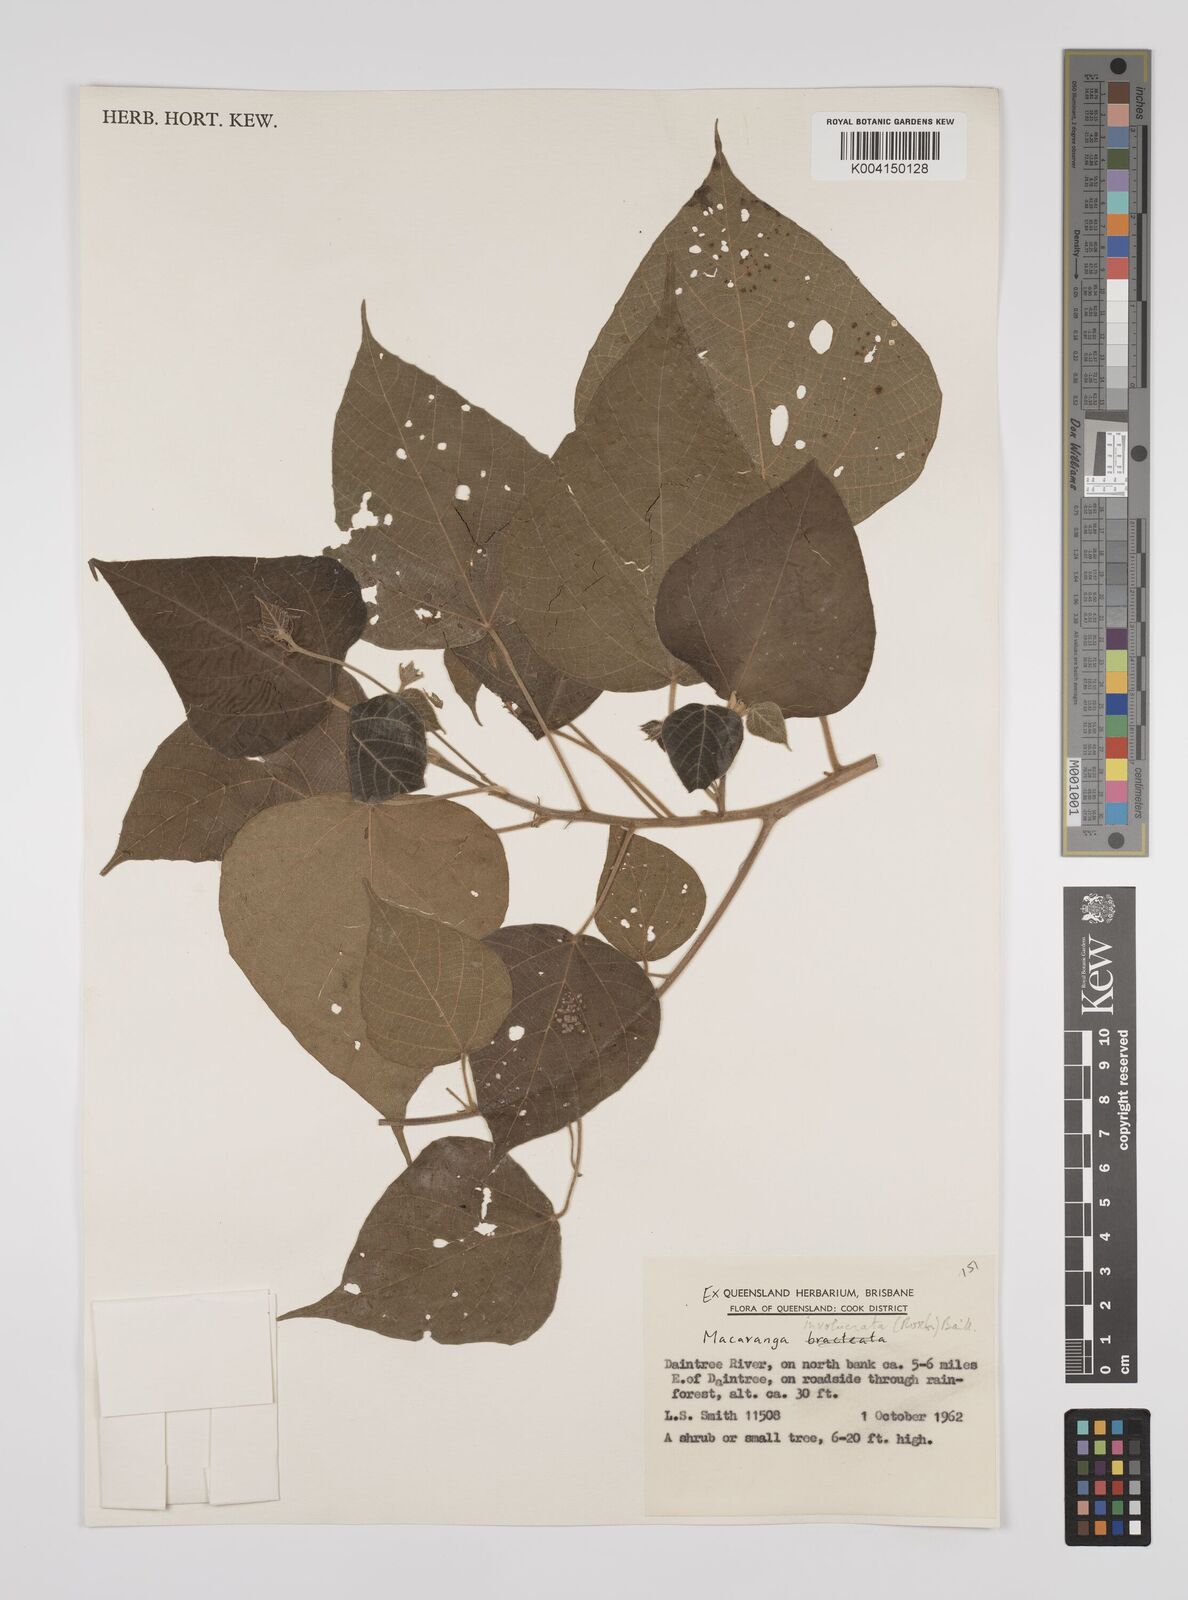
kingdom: Plantae
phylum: Tracheophyta
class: Magnoliopsida
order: Malpighiales
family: Euphorbiaceae
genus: Macaranga
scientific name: Macaranga involucrata
